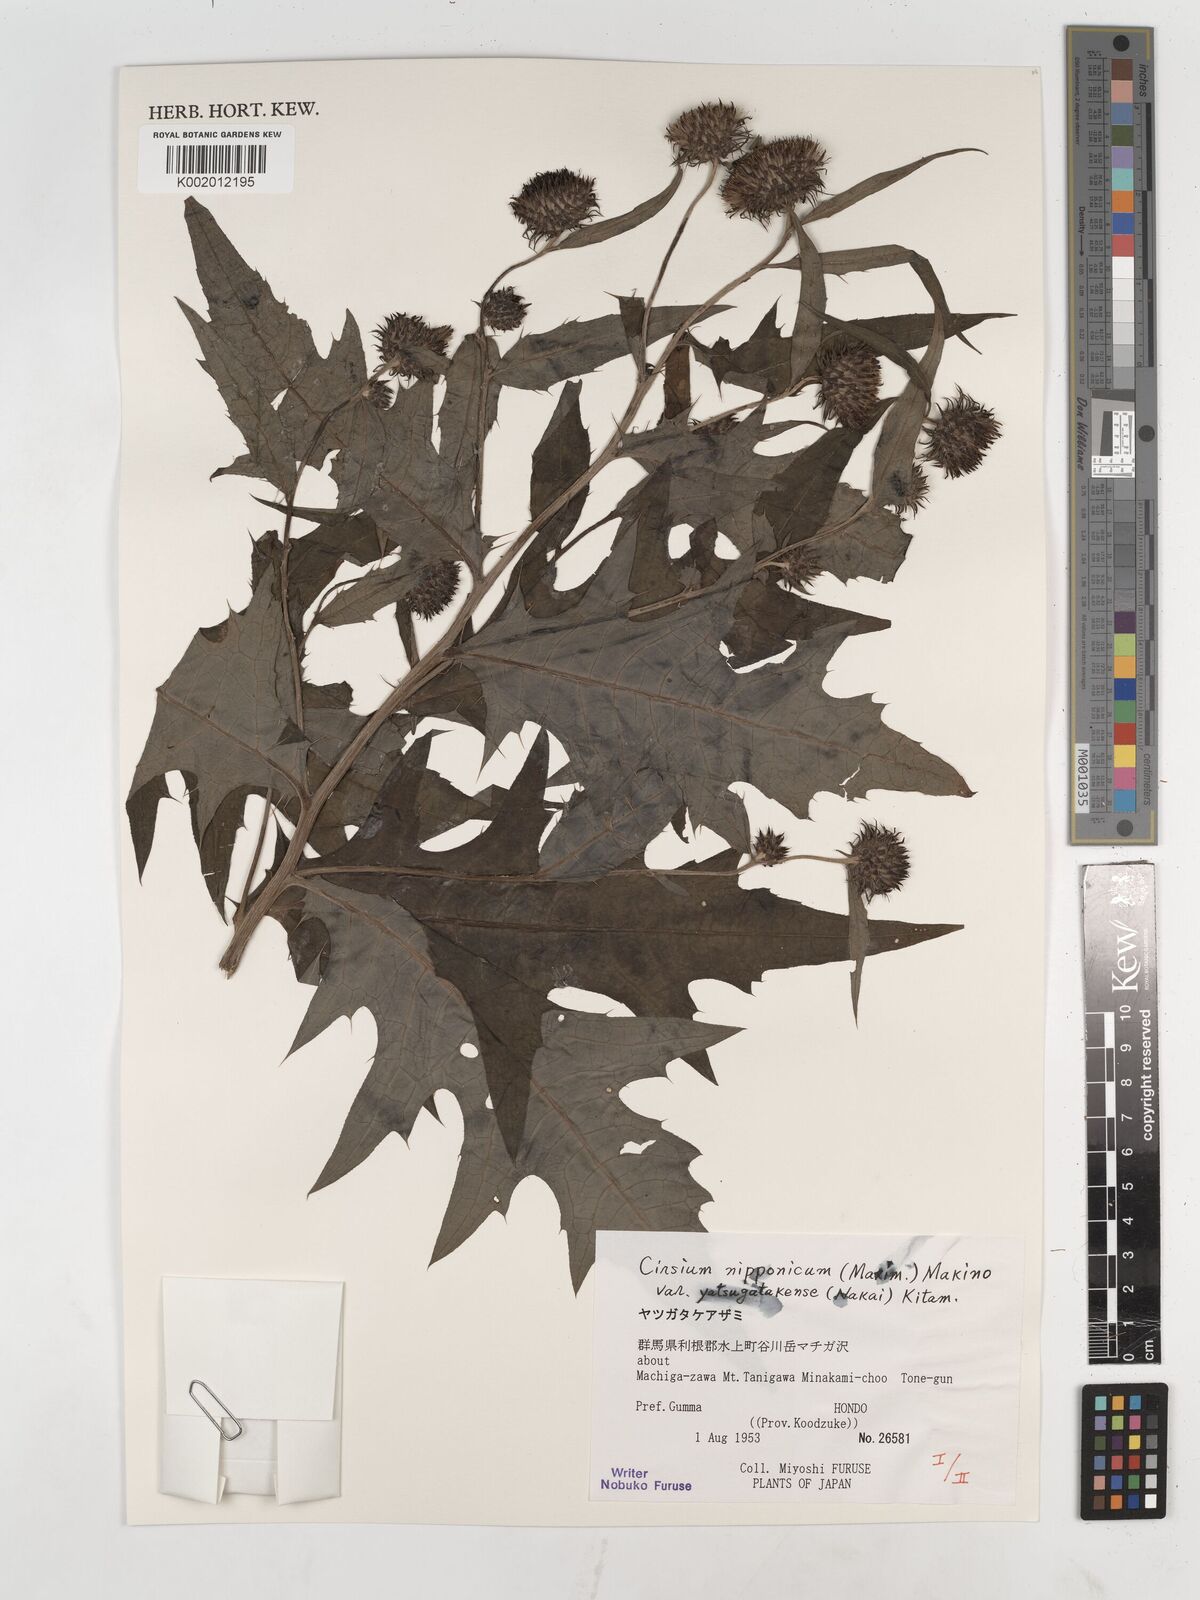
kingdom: Plantae
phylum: Tracheophyta
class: Magnoliopsida
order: Asterales
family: Asteraceae
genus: Cirsium
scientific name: Cirsium nipponicum
